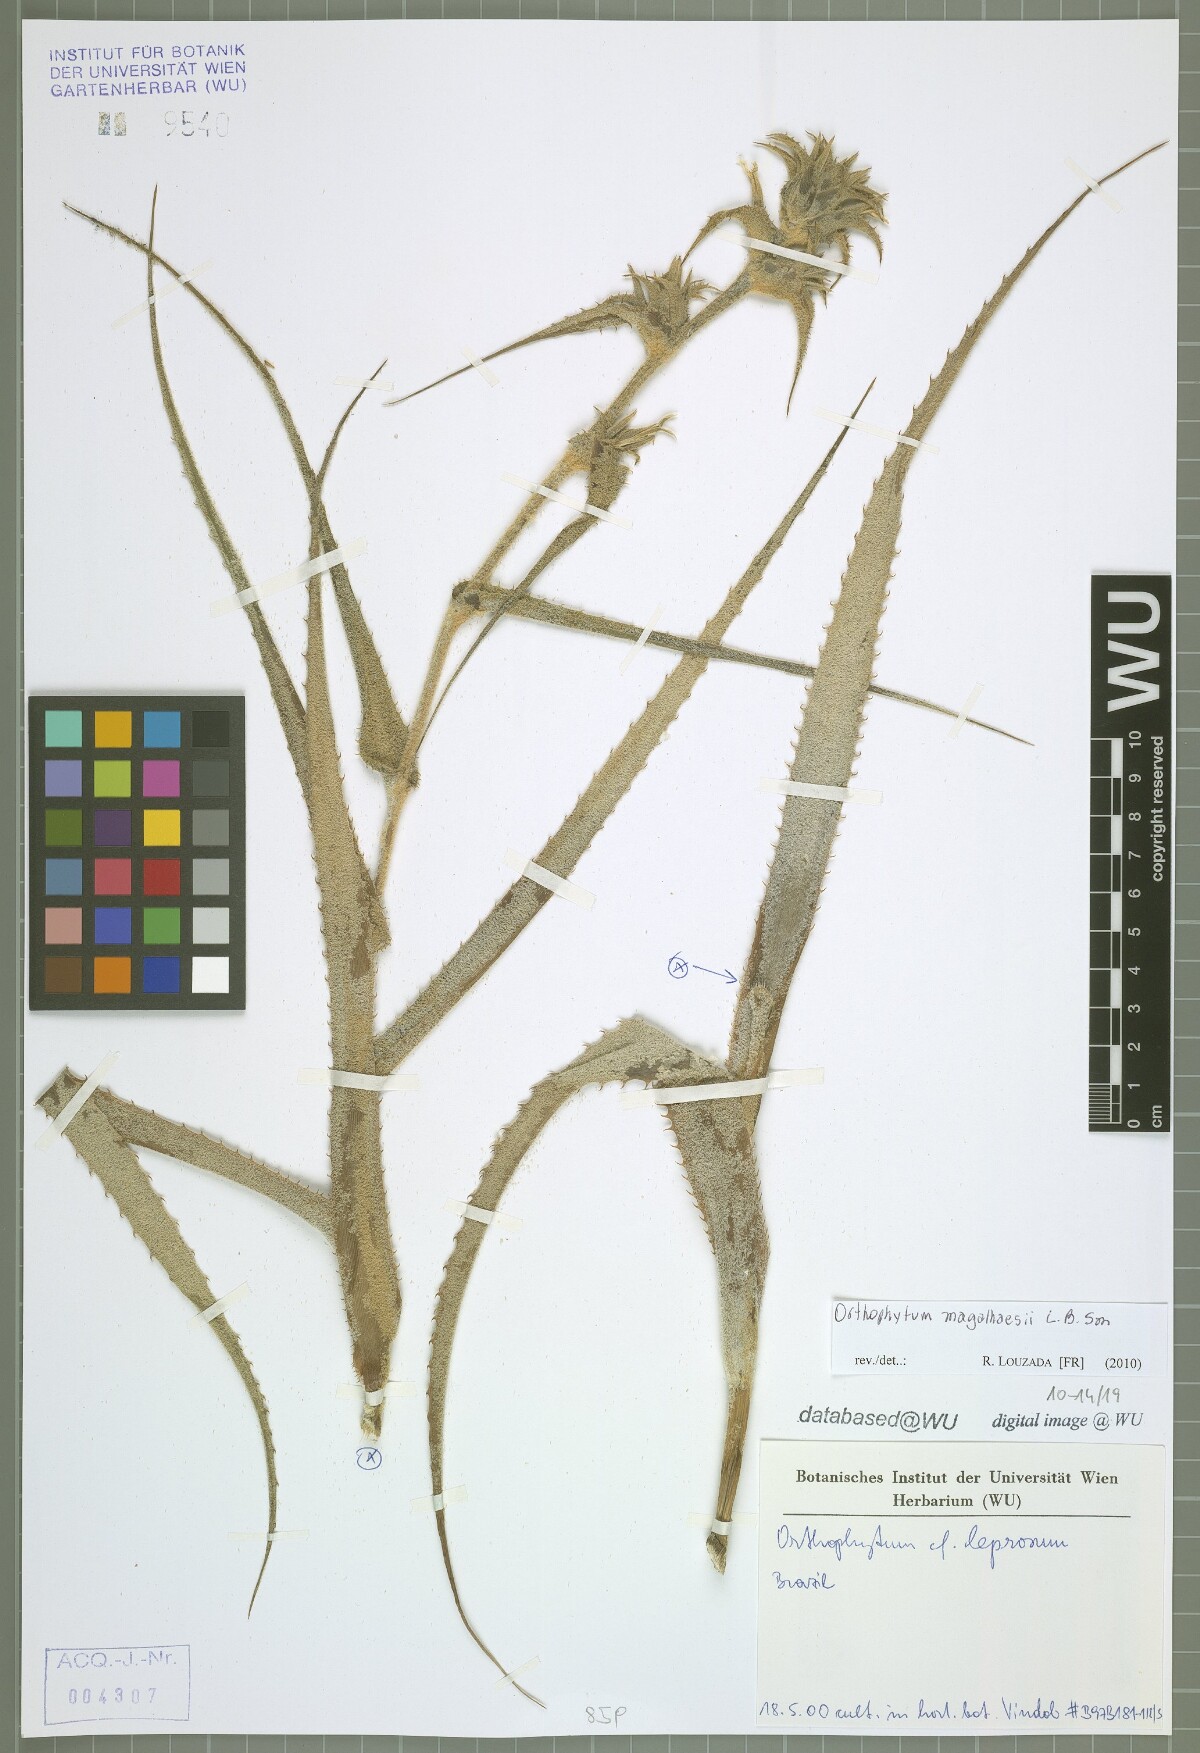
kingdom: Plantae
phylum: Tracheophyta
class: Liliopsida
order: Poales
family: Bromeliaceae
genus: Orthophytum
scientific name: Orthophytum magalhaesii
